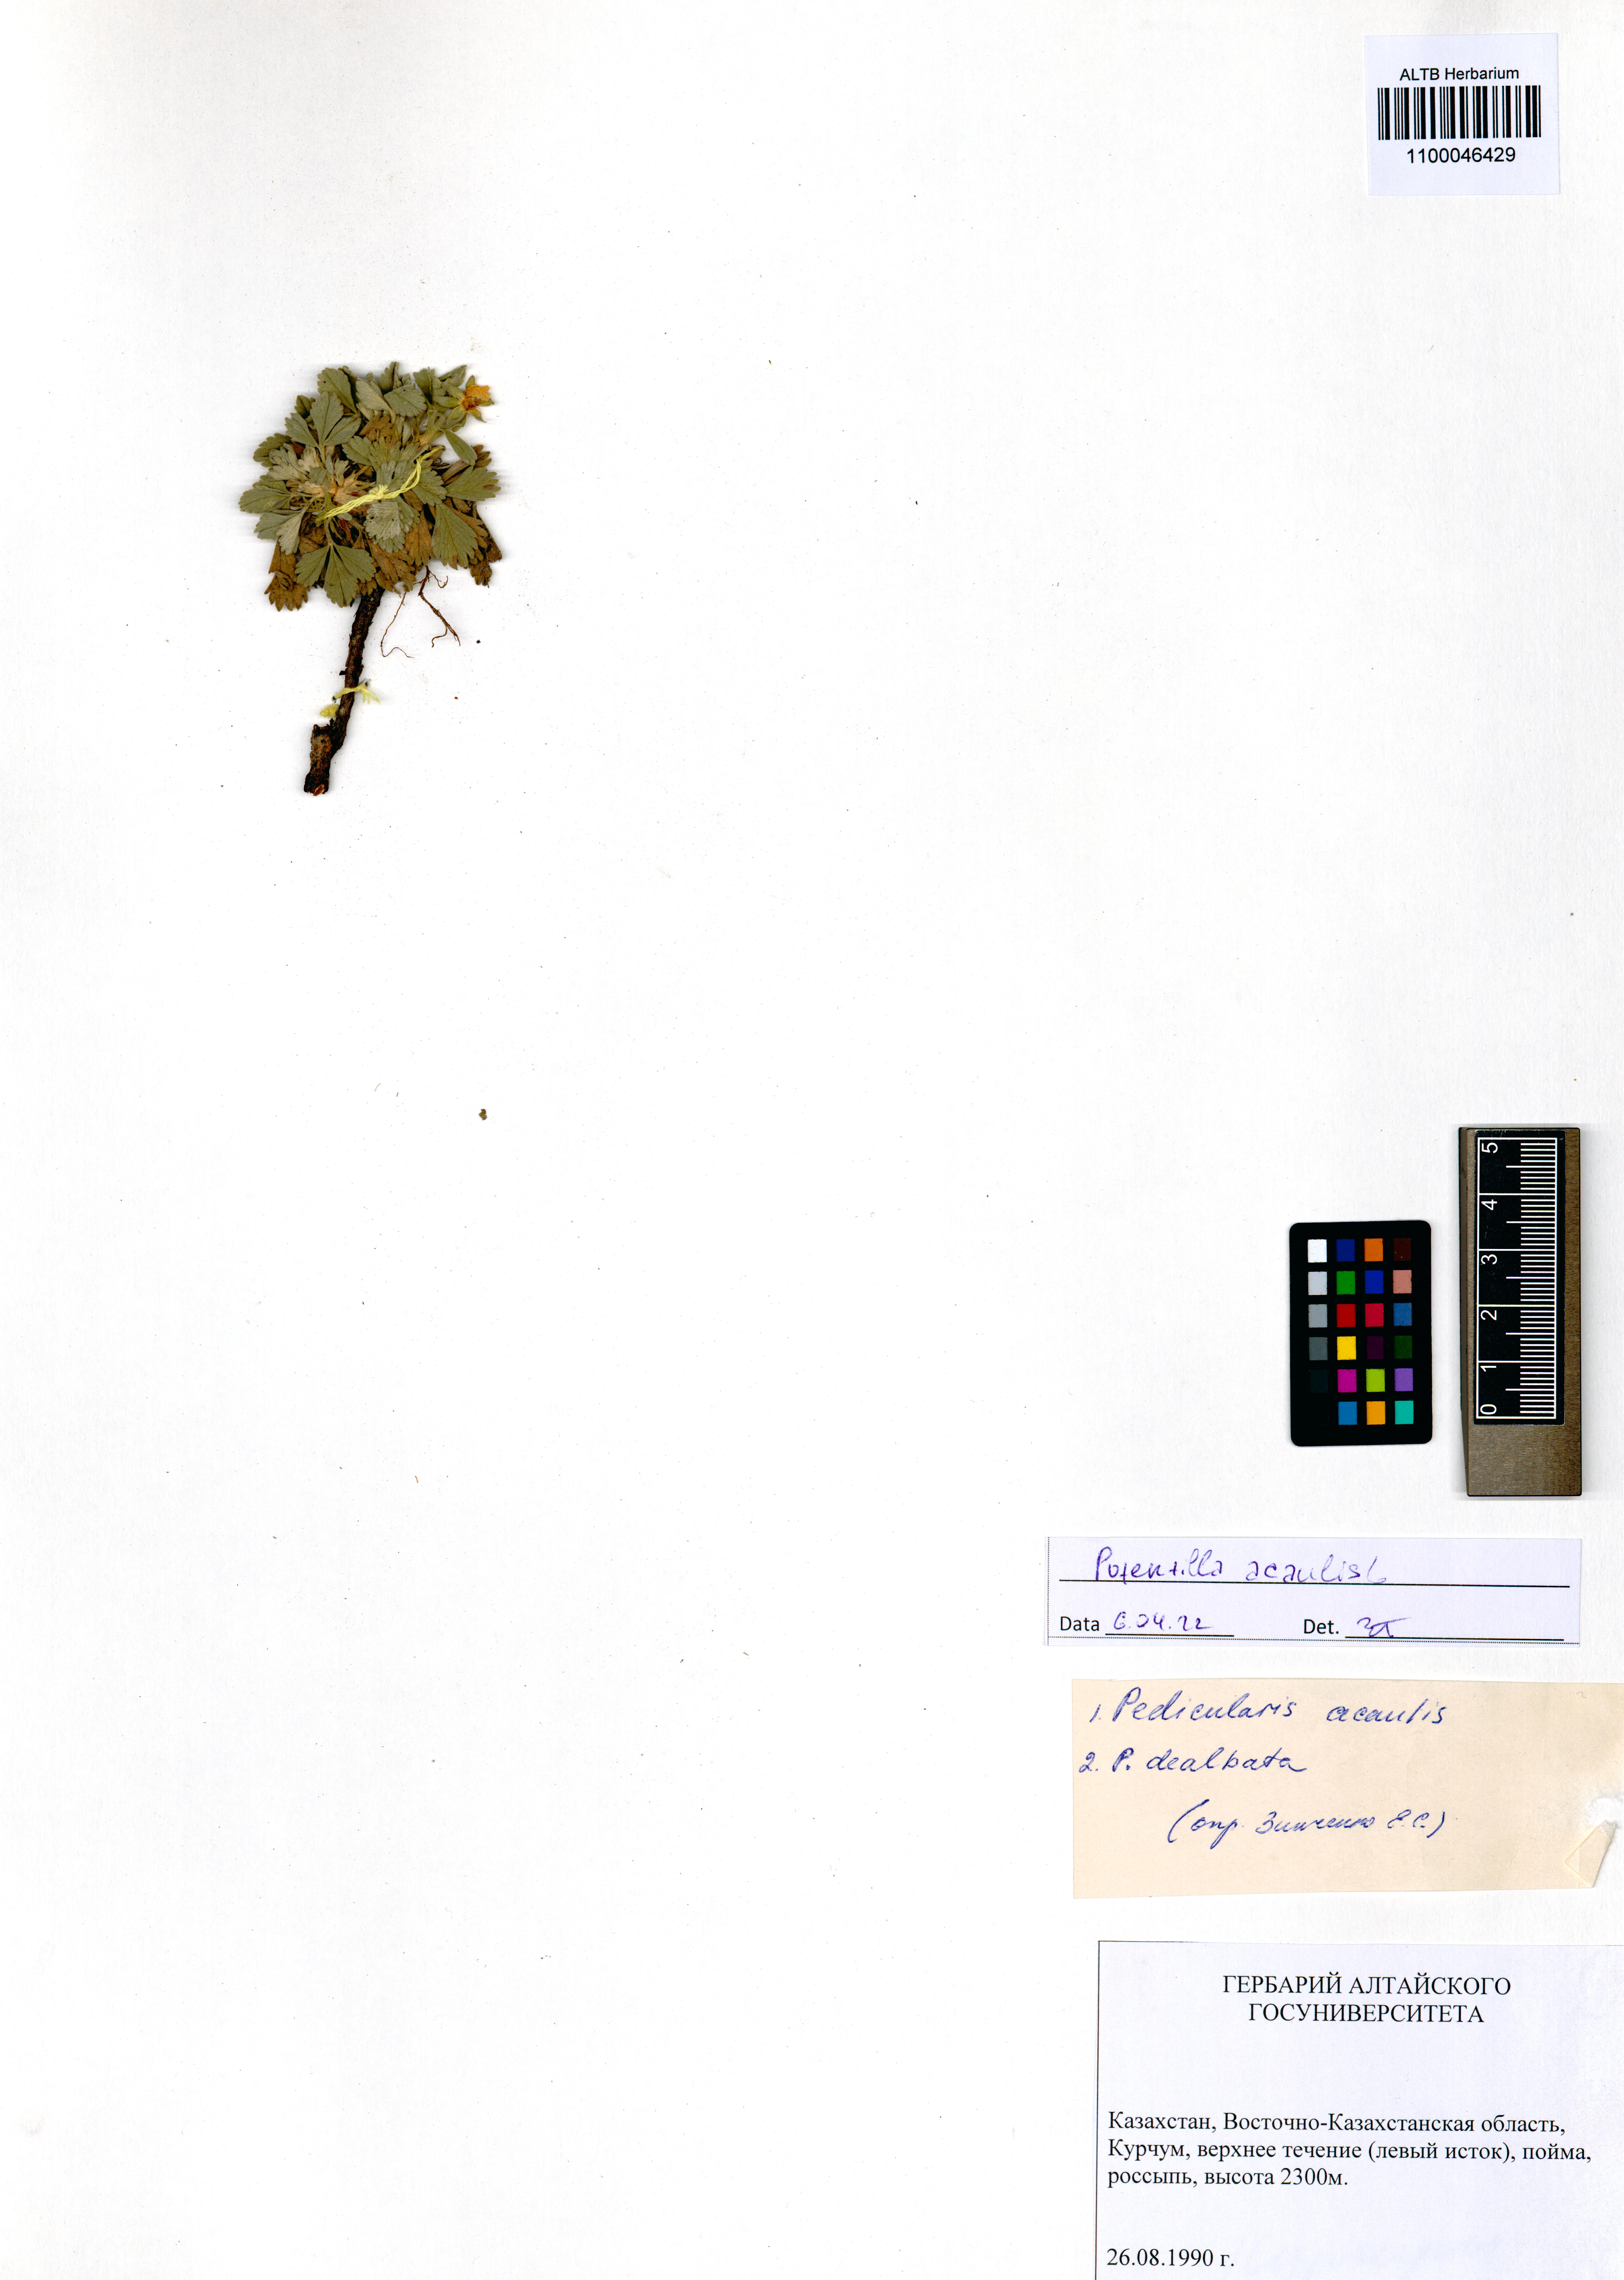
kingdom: Plantae
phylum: Tracheophyta
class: Magnoliopsida
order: Rosales
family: Rosaceae
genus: Potentilla
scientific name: Potentilla acaulis
